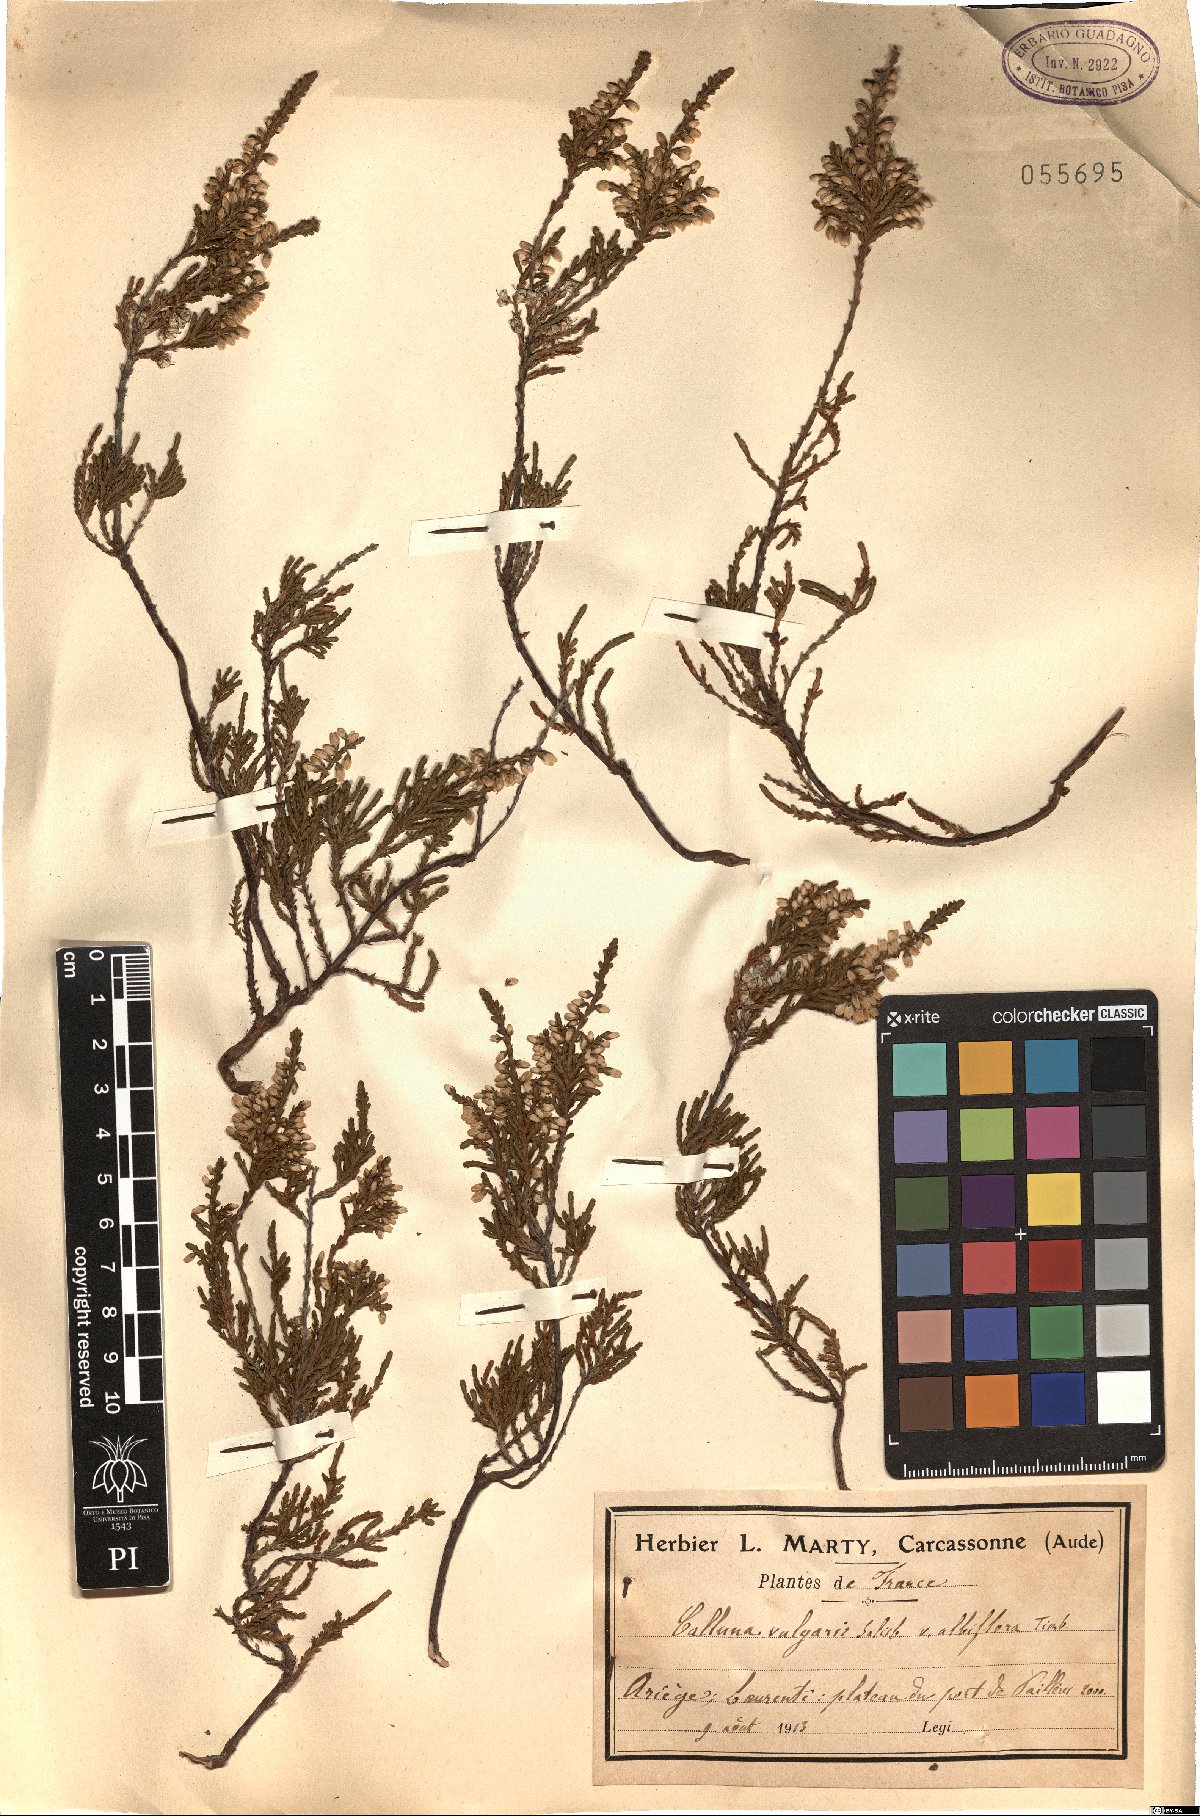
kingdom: Plantae
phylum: Tracheophyta
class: Magnoliopsida
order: Ericales
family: Ericaceae
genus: Calluna
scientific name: Calluna vulgaris
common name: Heather
